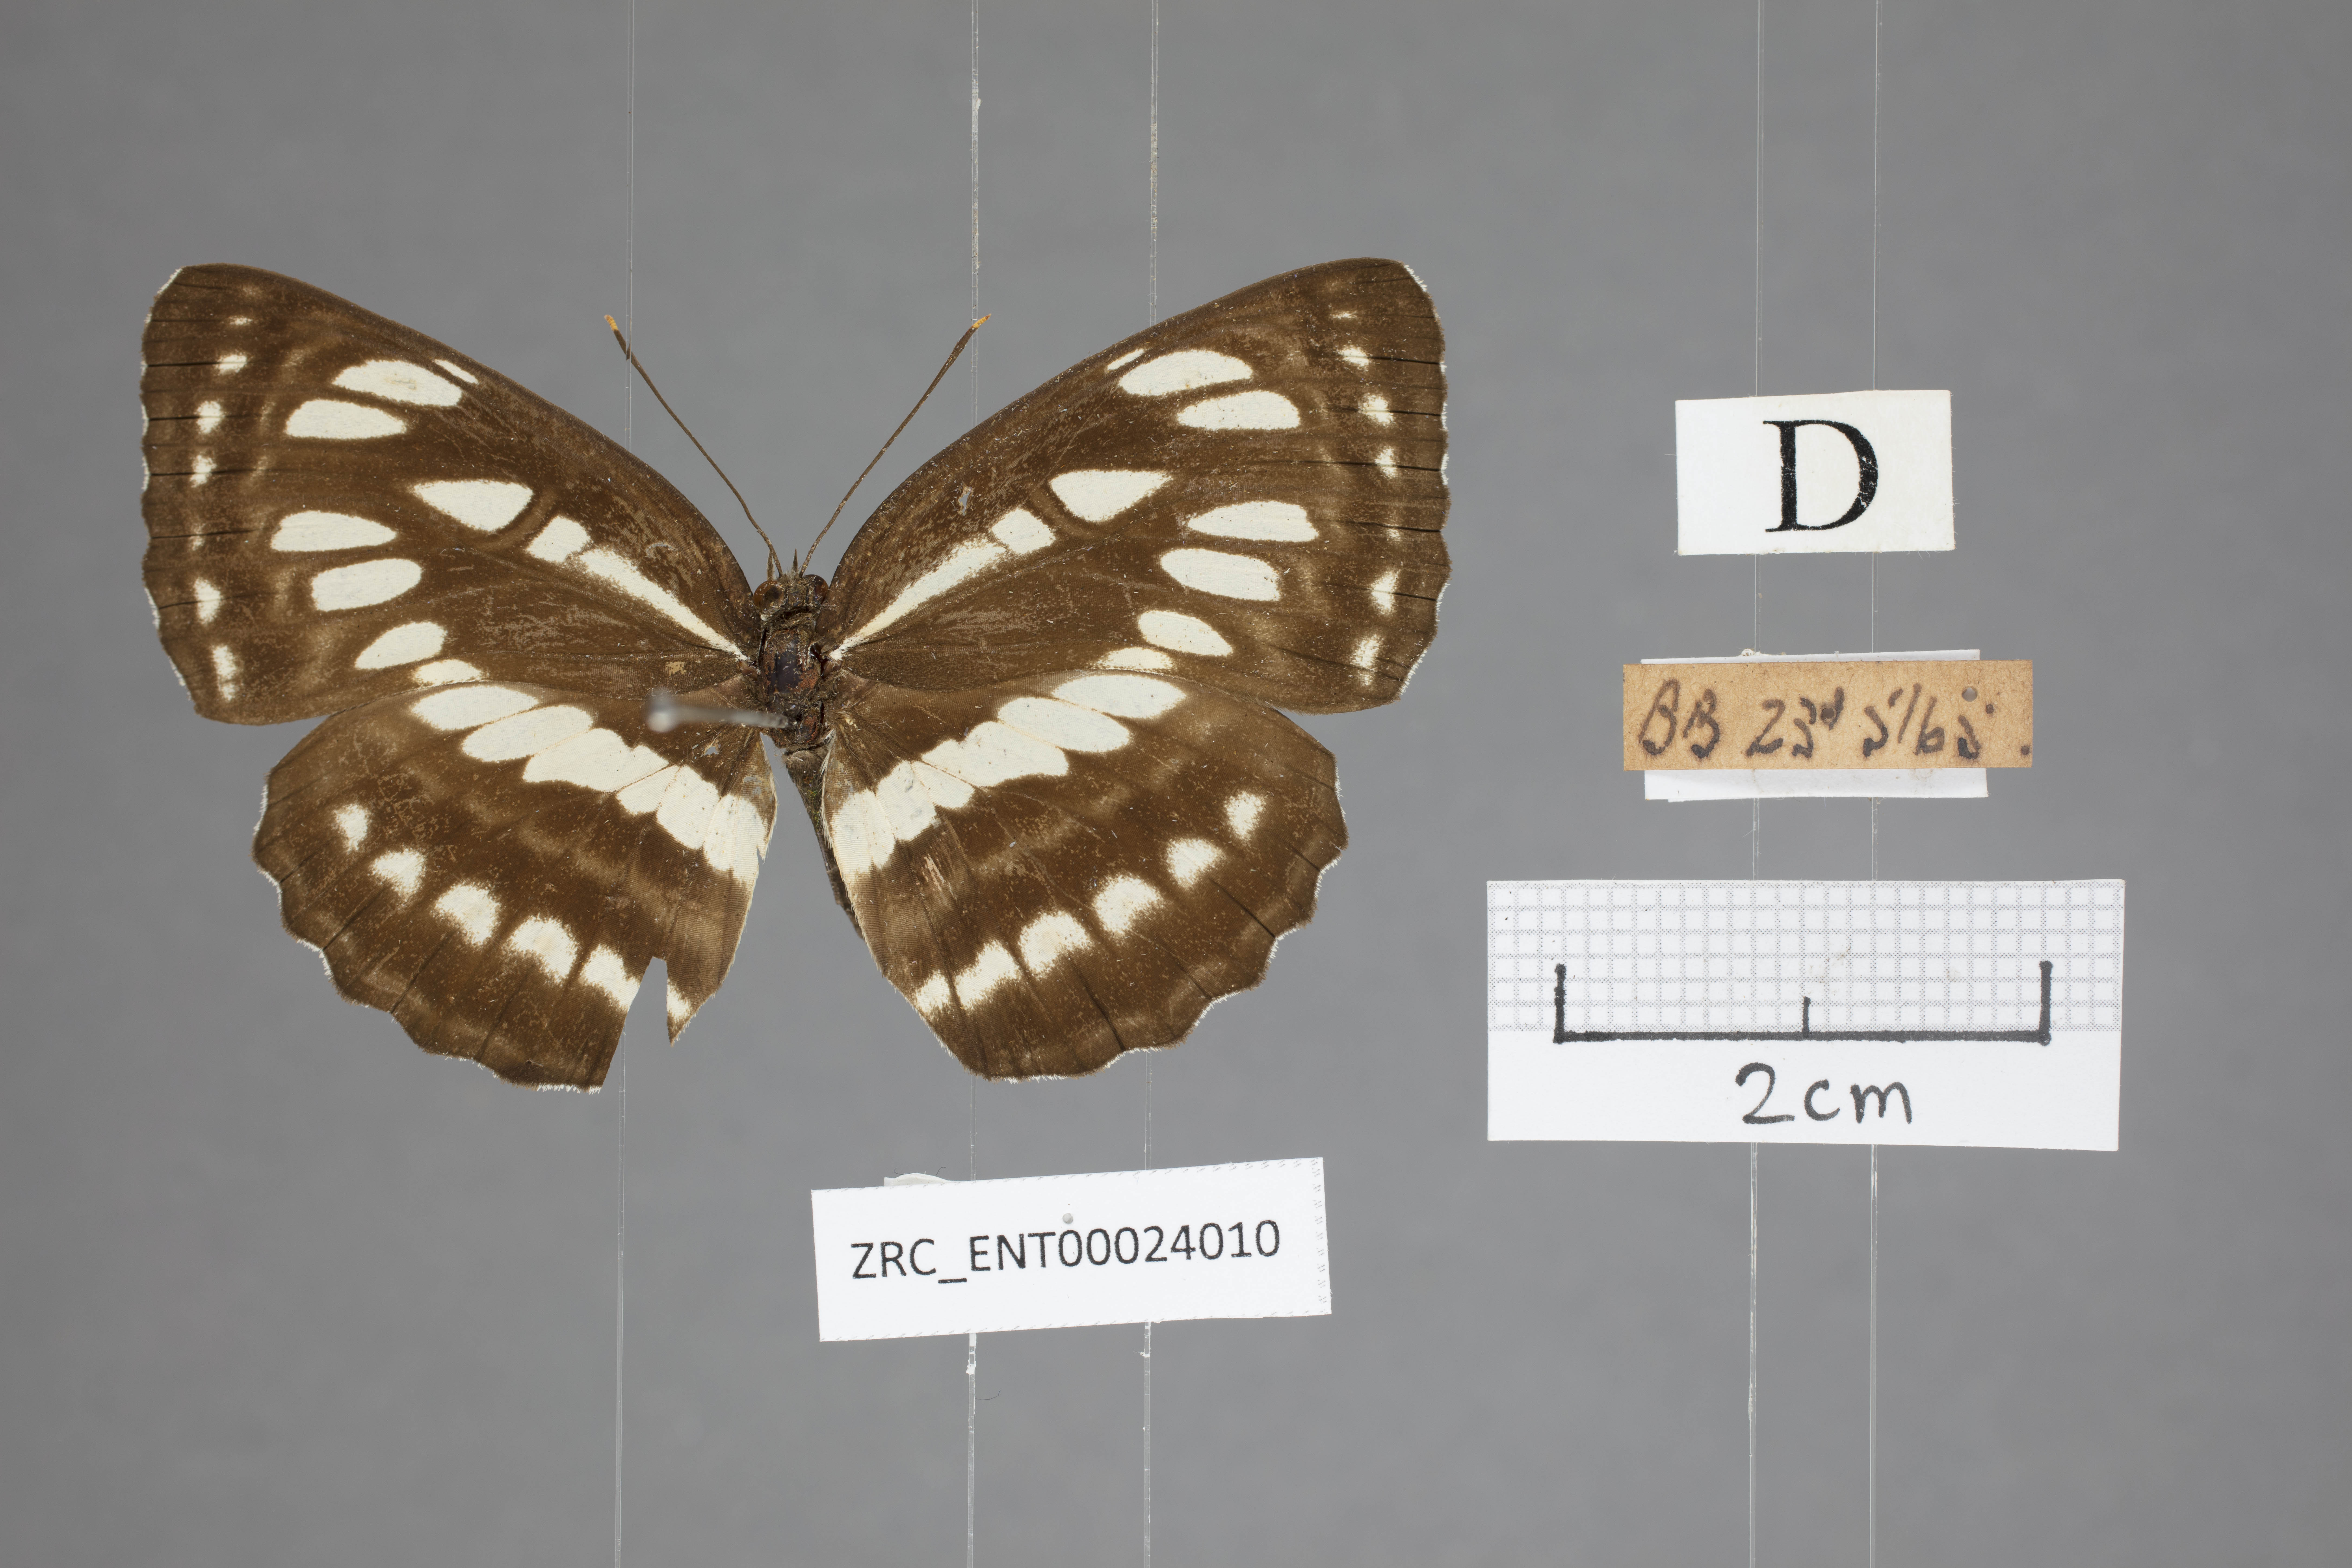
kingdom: Animalia
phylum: Arthropoda
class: Insecta
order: Lepidoptera
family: Nymphalidae
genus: Neptis
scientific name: Neptis hylas
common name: Common sailer
